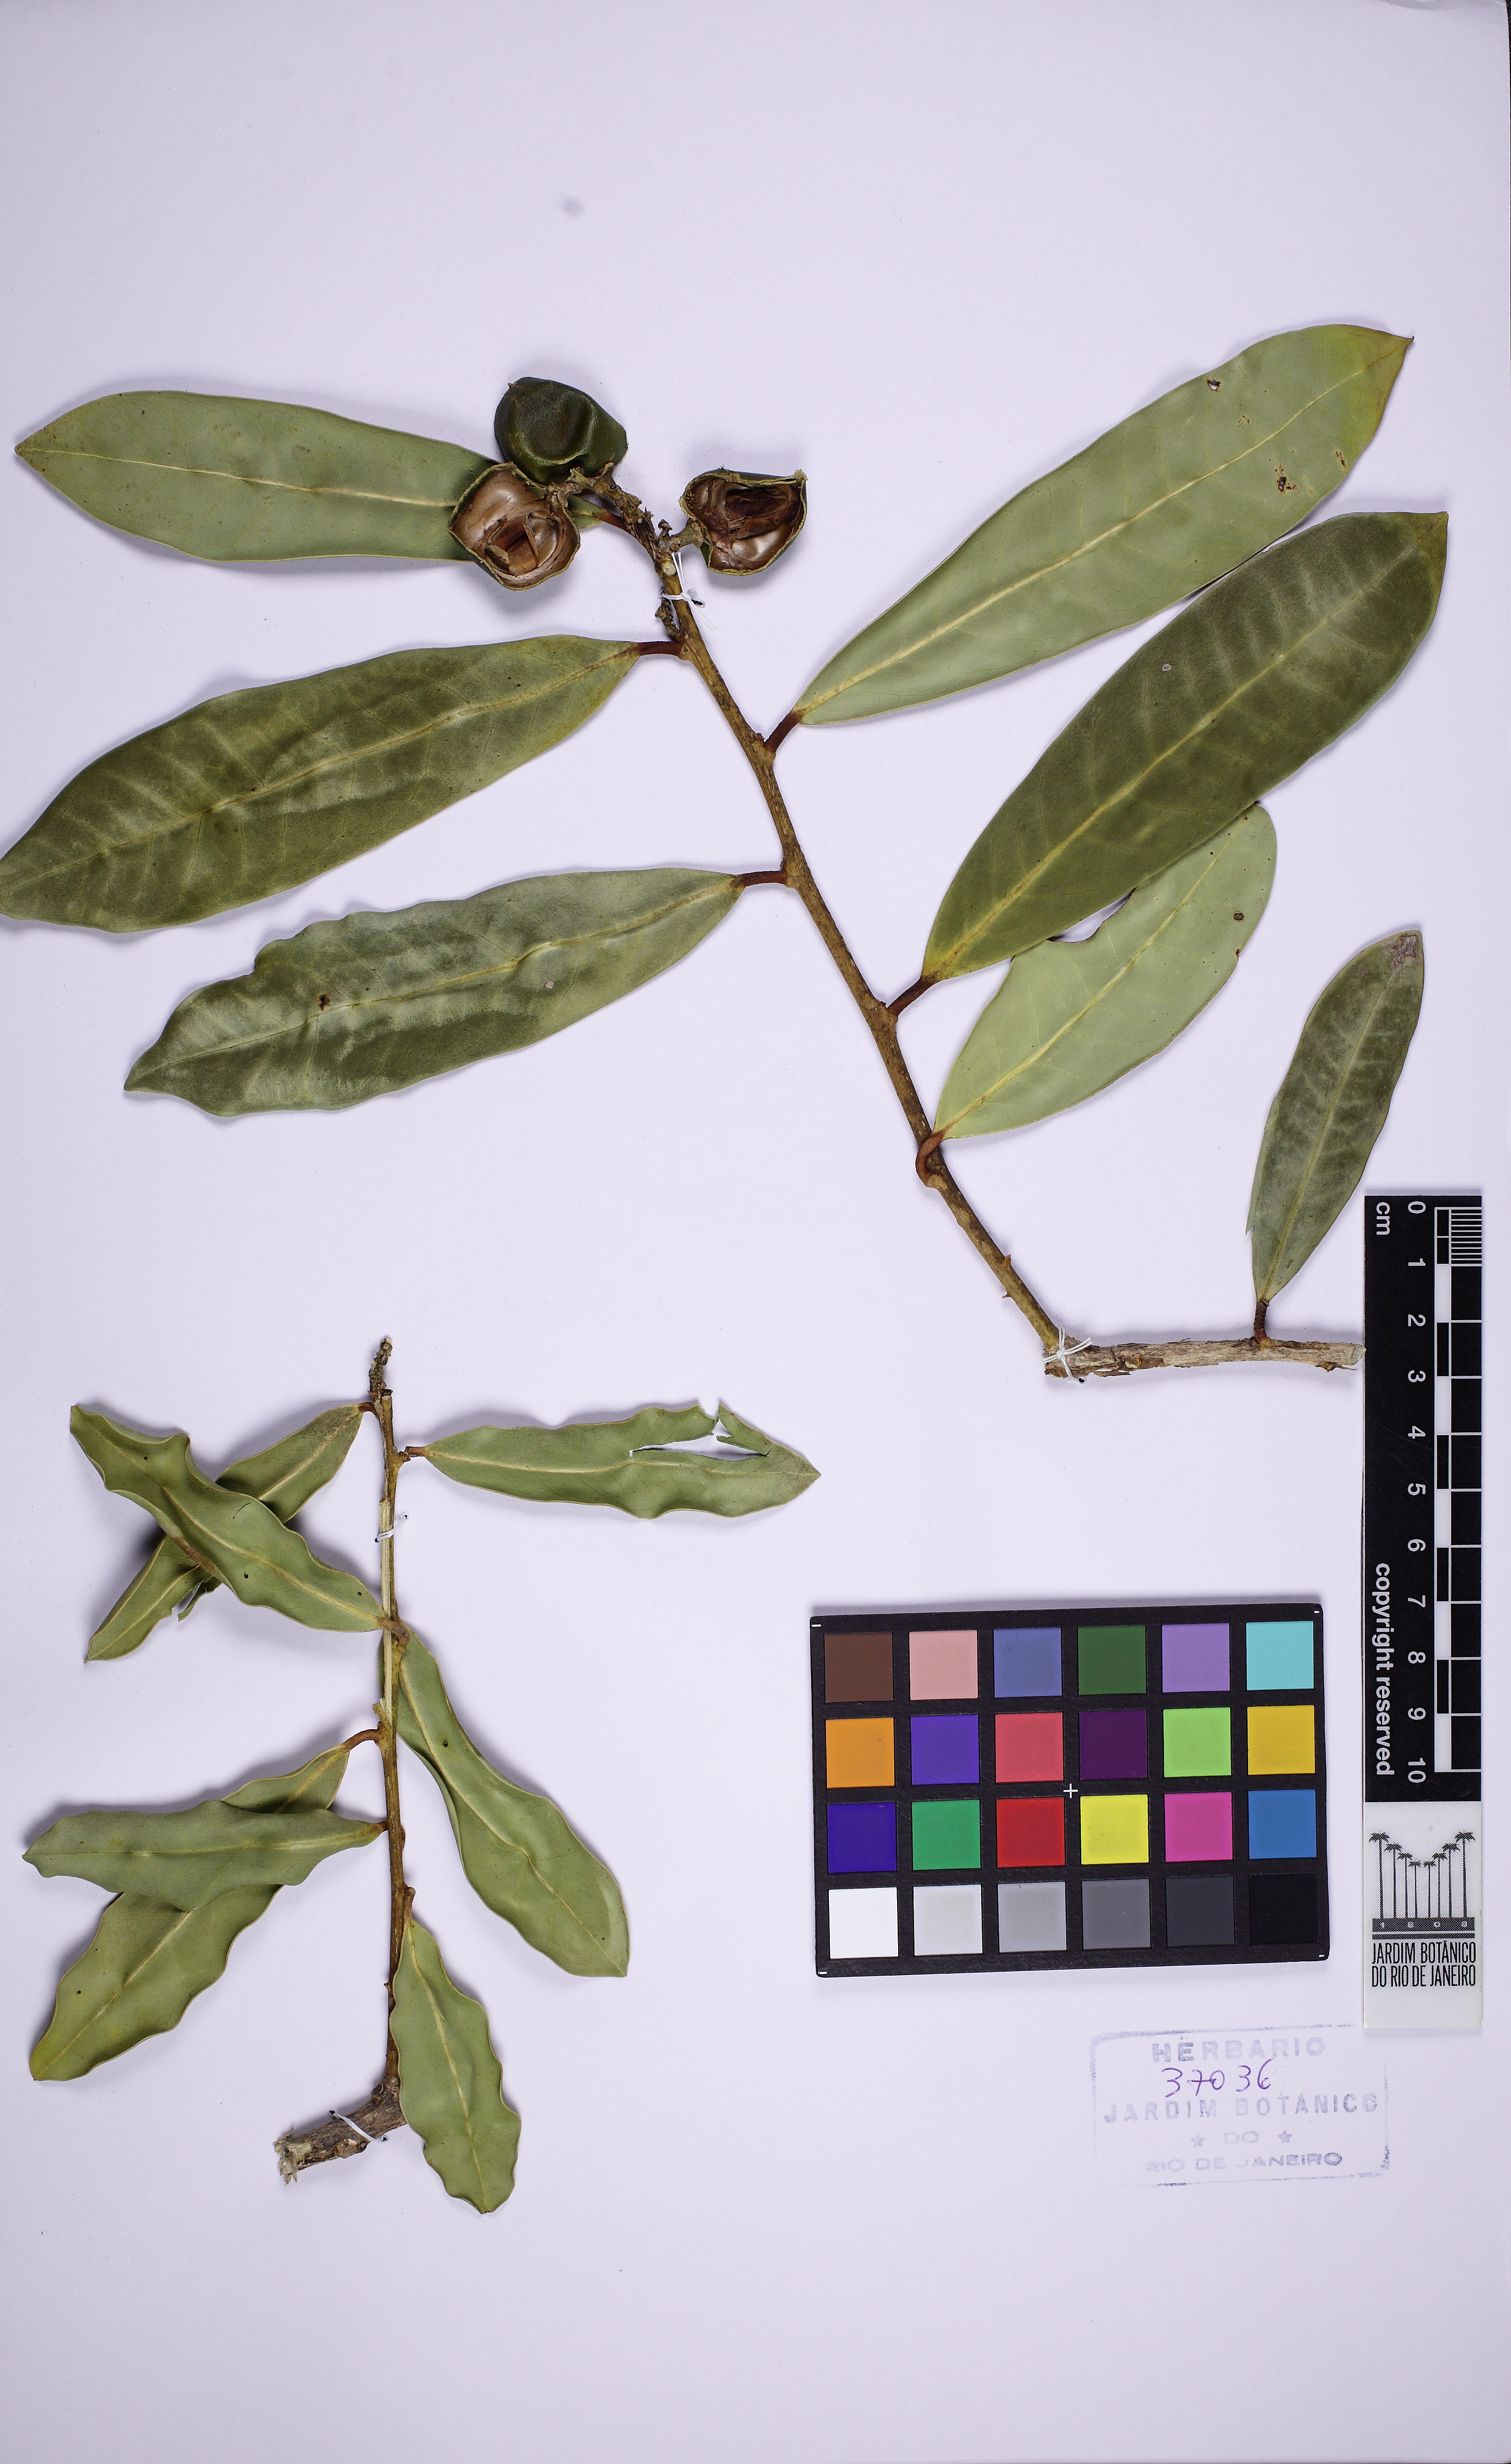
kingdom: Plantae
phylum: Tracheophyta
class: Magnoliopsida
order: Fabales
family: Polygalaceae
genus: Moutabea
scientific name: Moutabea excoriata
